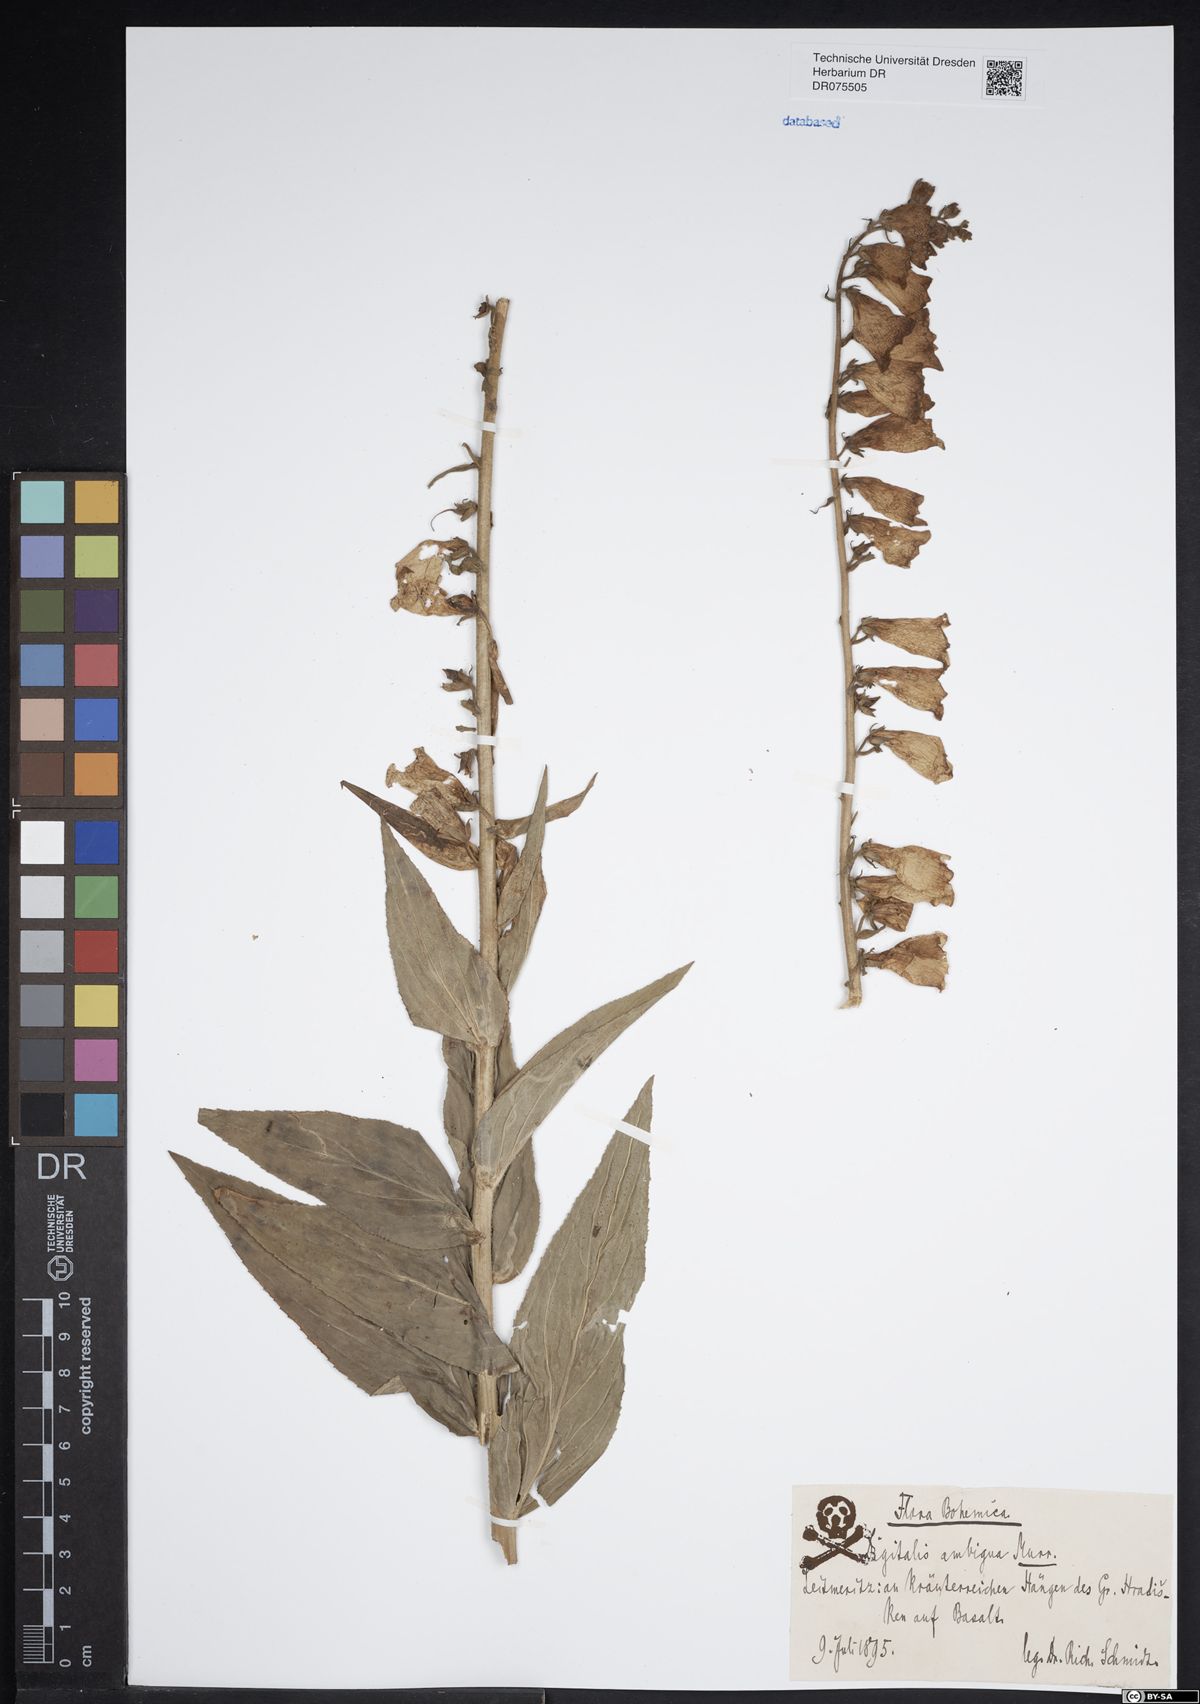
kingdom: Plantae
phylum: Tracheophyta
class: Magnoliopsida
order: Lamiales
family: Plantaginaceae
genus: Digitalis
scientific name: Digitalis grandiflora
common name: Yellow foxglove
